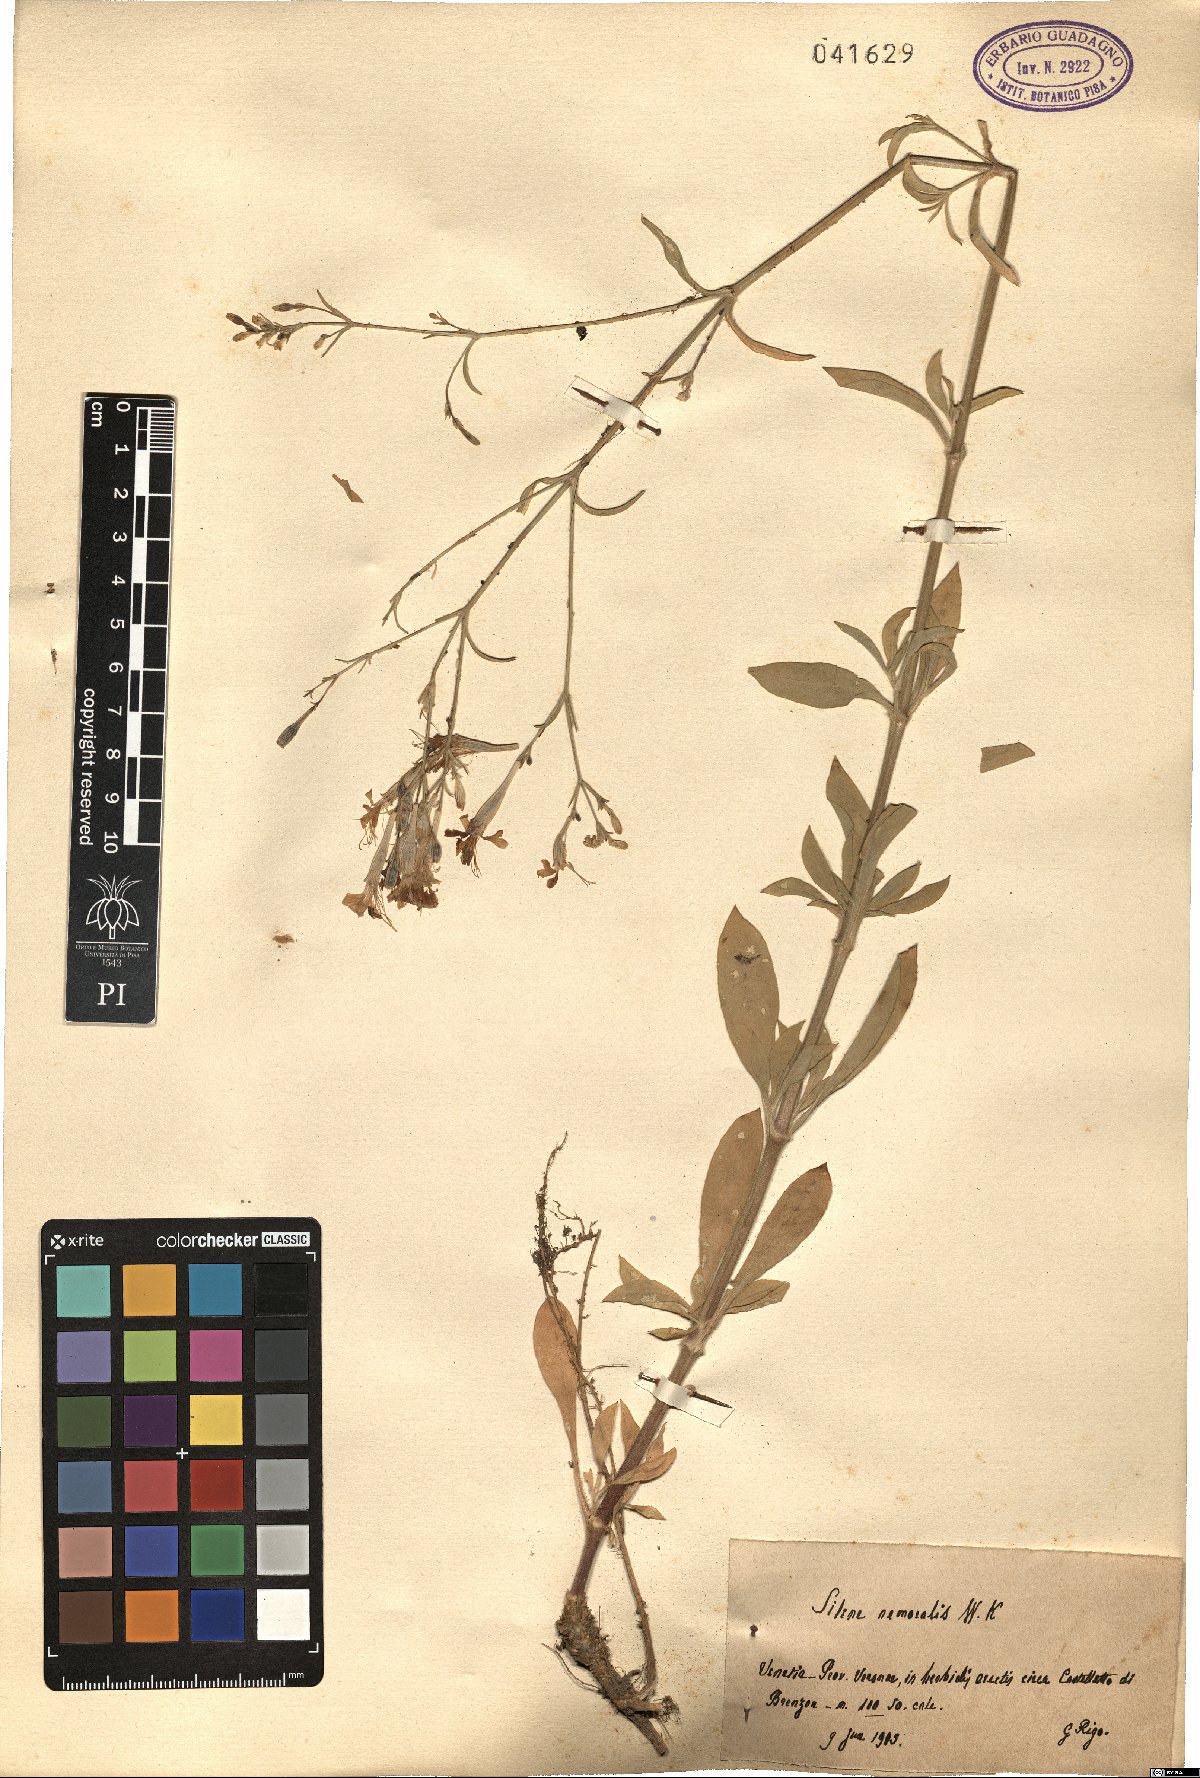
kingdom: Plantae
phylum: Tracheophyta
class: Magnoliopsida
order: Caryophyllales
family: Caryophyllaceae
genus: Silene
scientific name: Silene nemoralis
